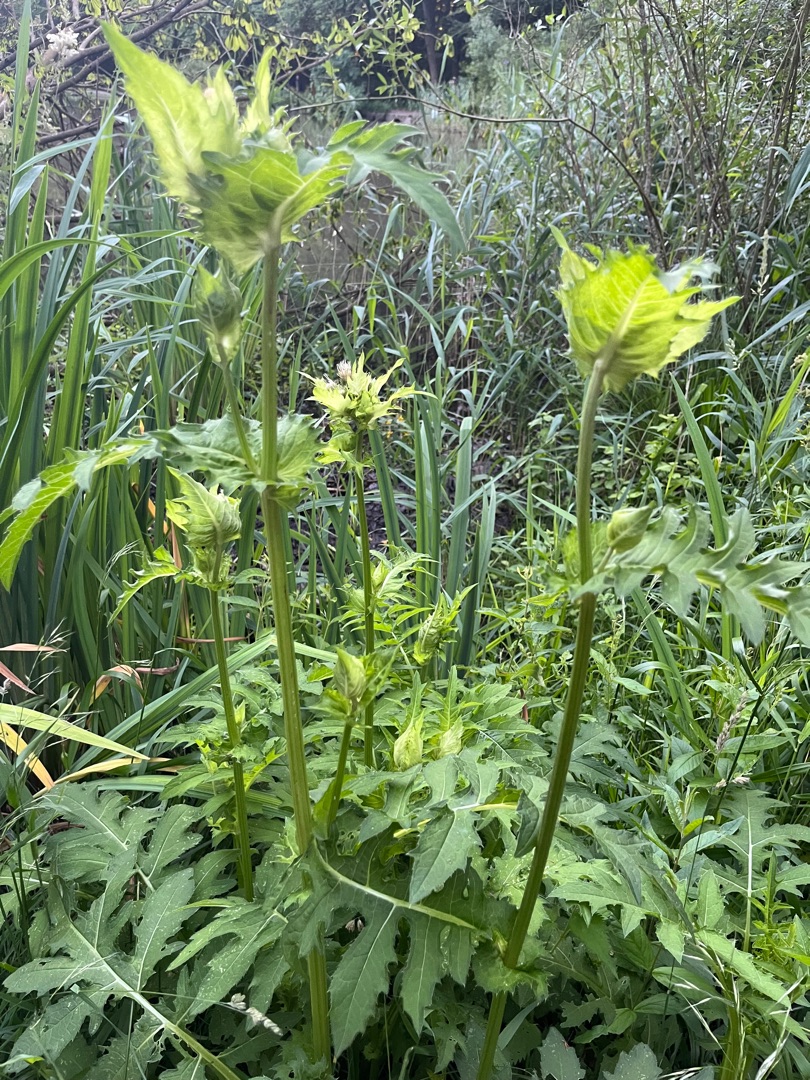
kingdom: Plantae
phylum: Tracheophyta
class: Magnoliopsida
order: Asterales
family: Asteraceae
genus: Cirsium
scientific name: Cirsium oleraceum
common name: Kål-tidsel
